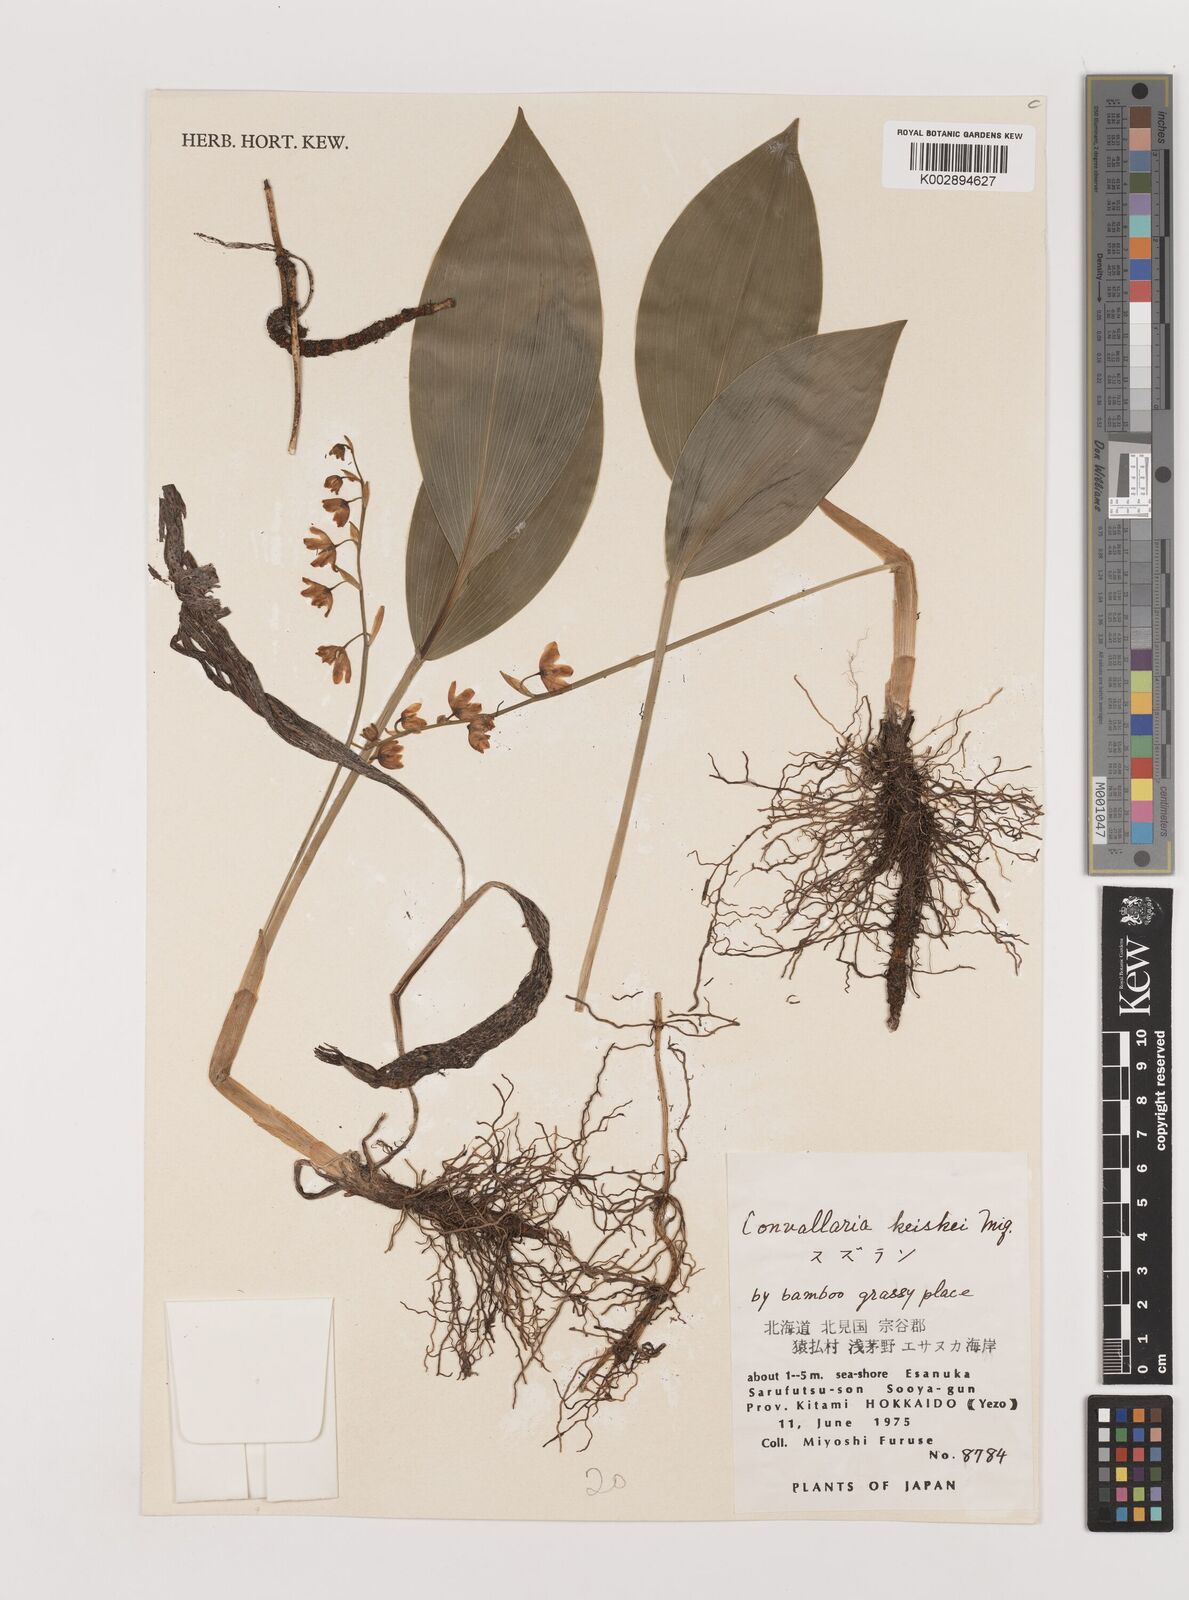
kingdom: Plantae
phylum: Tracheophyta
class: Liliopsida
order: Asparagales
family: Asparagaceae
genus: Ophiopogon
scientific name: Ophiopogon
